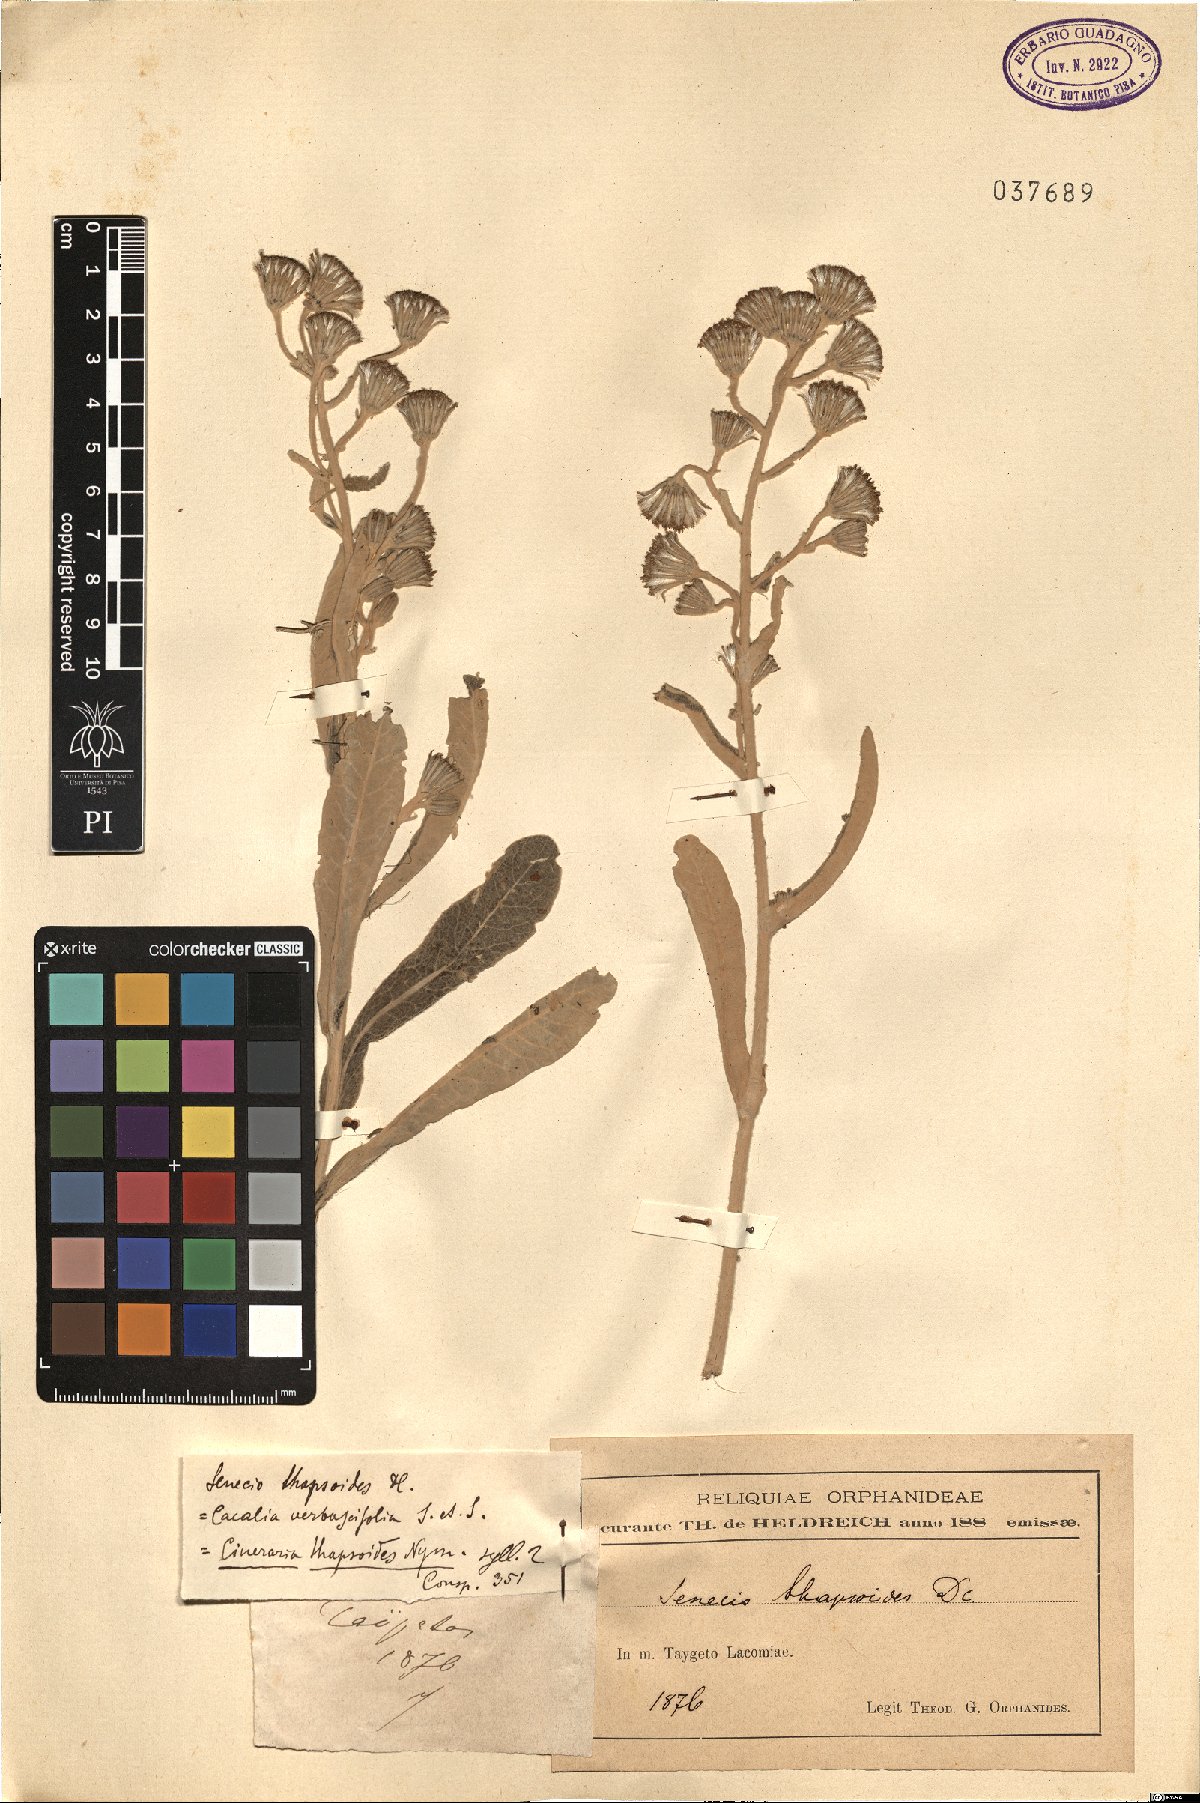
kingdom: Plantae
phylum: Tracheophyta
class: Magnoliopsida
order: Asterales
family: Asteraceae
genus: Senecio
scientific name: Senecio thapsoides
